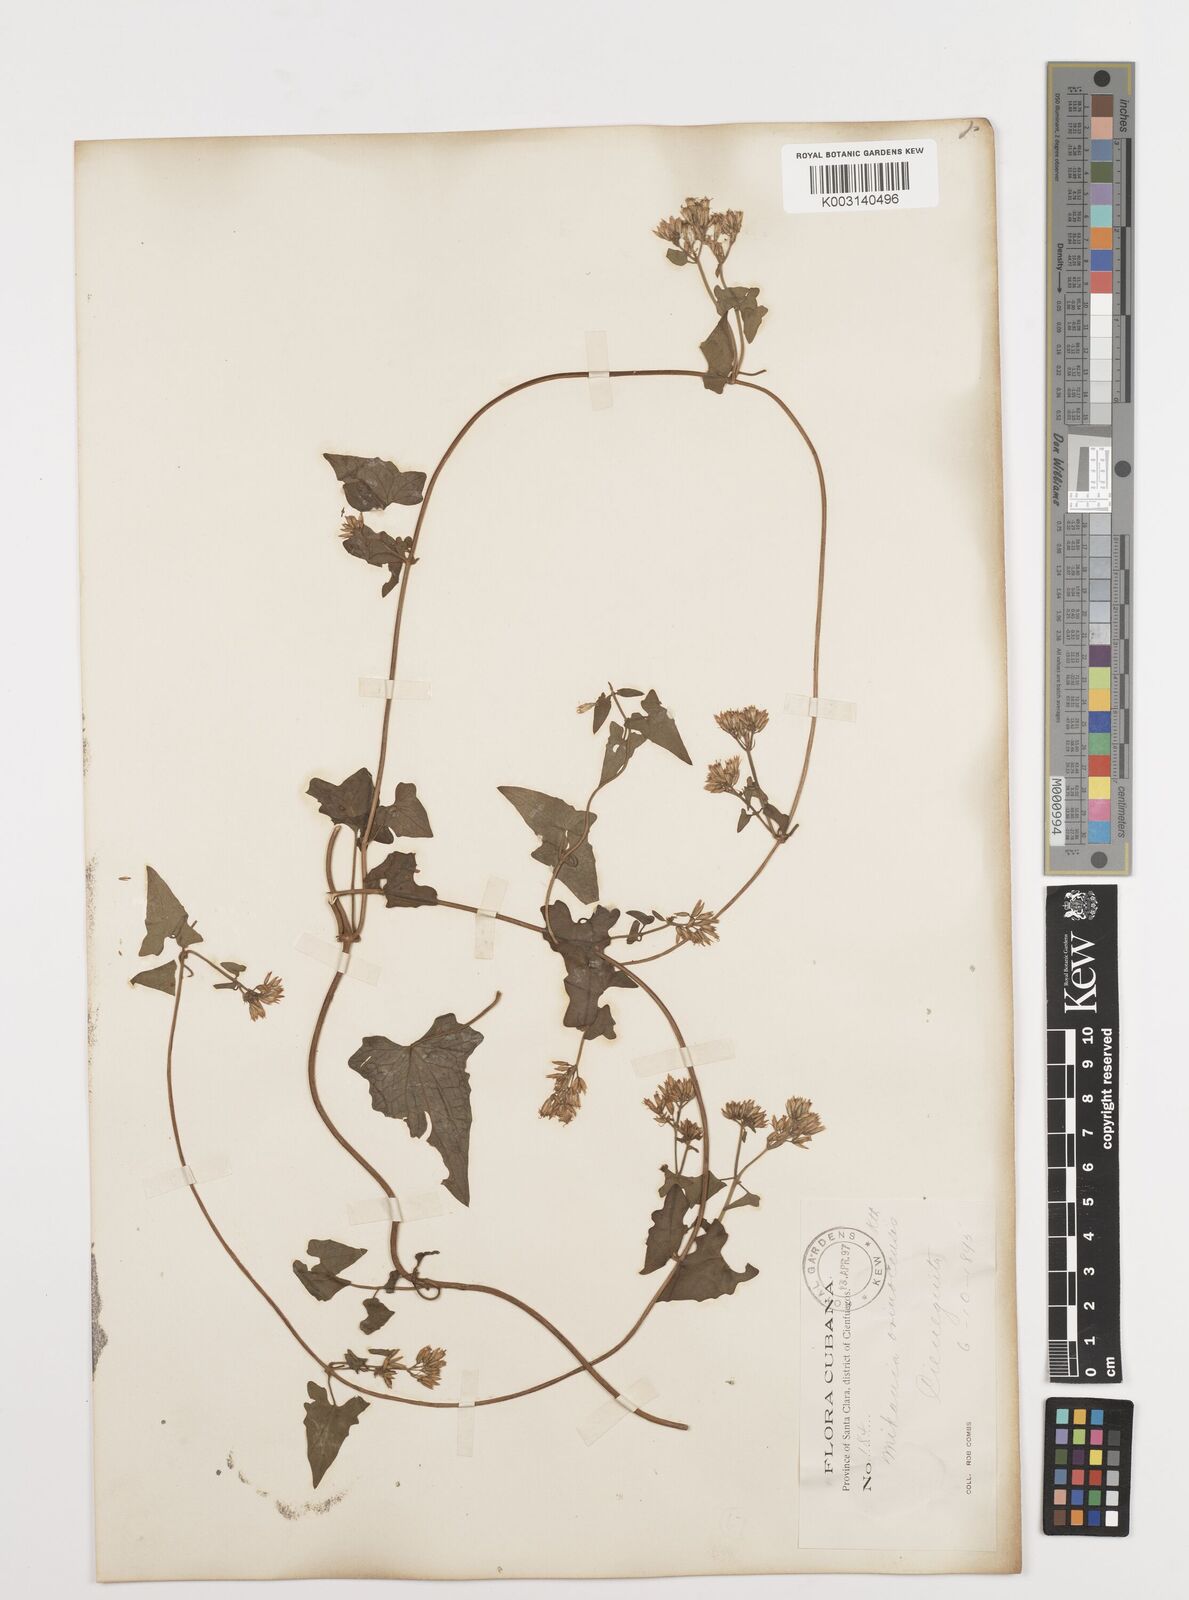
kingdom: Plantae
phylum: Tracheophyta
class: Magnoliopsida
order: Asterales
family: Asteraceae
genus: Mikania
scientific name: Mikania micrantha
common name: Mile-a-minute
